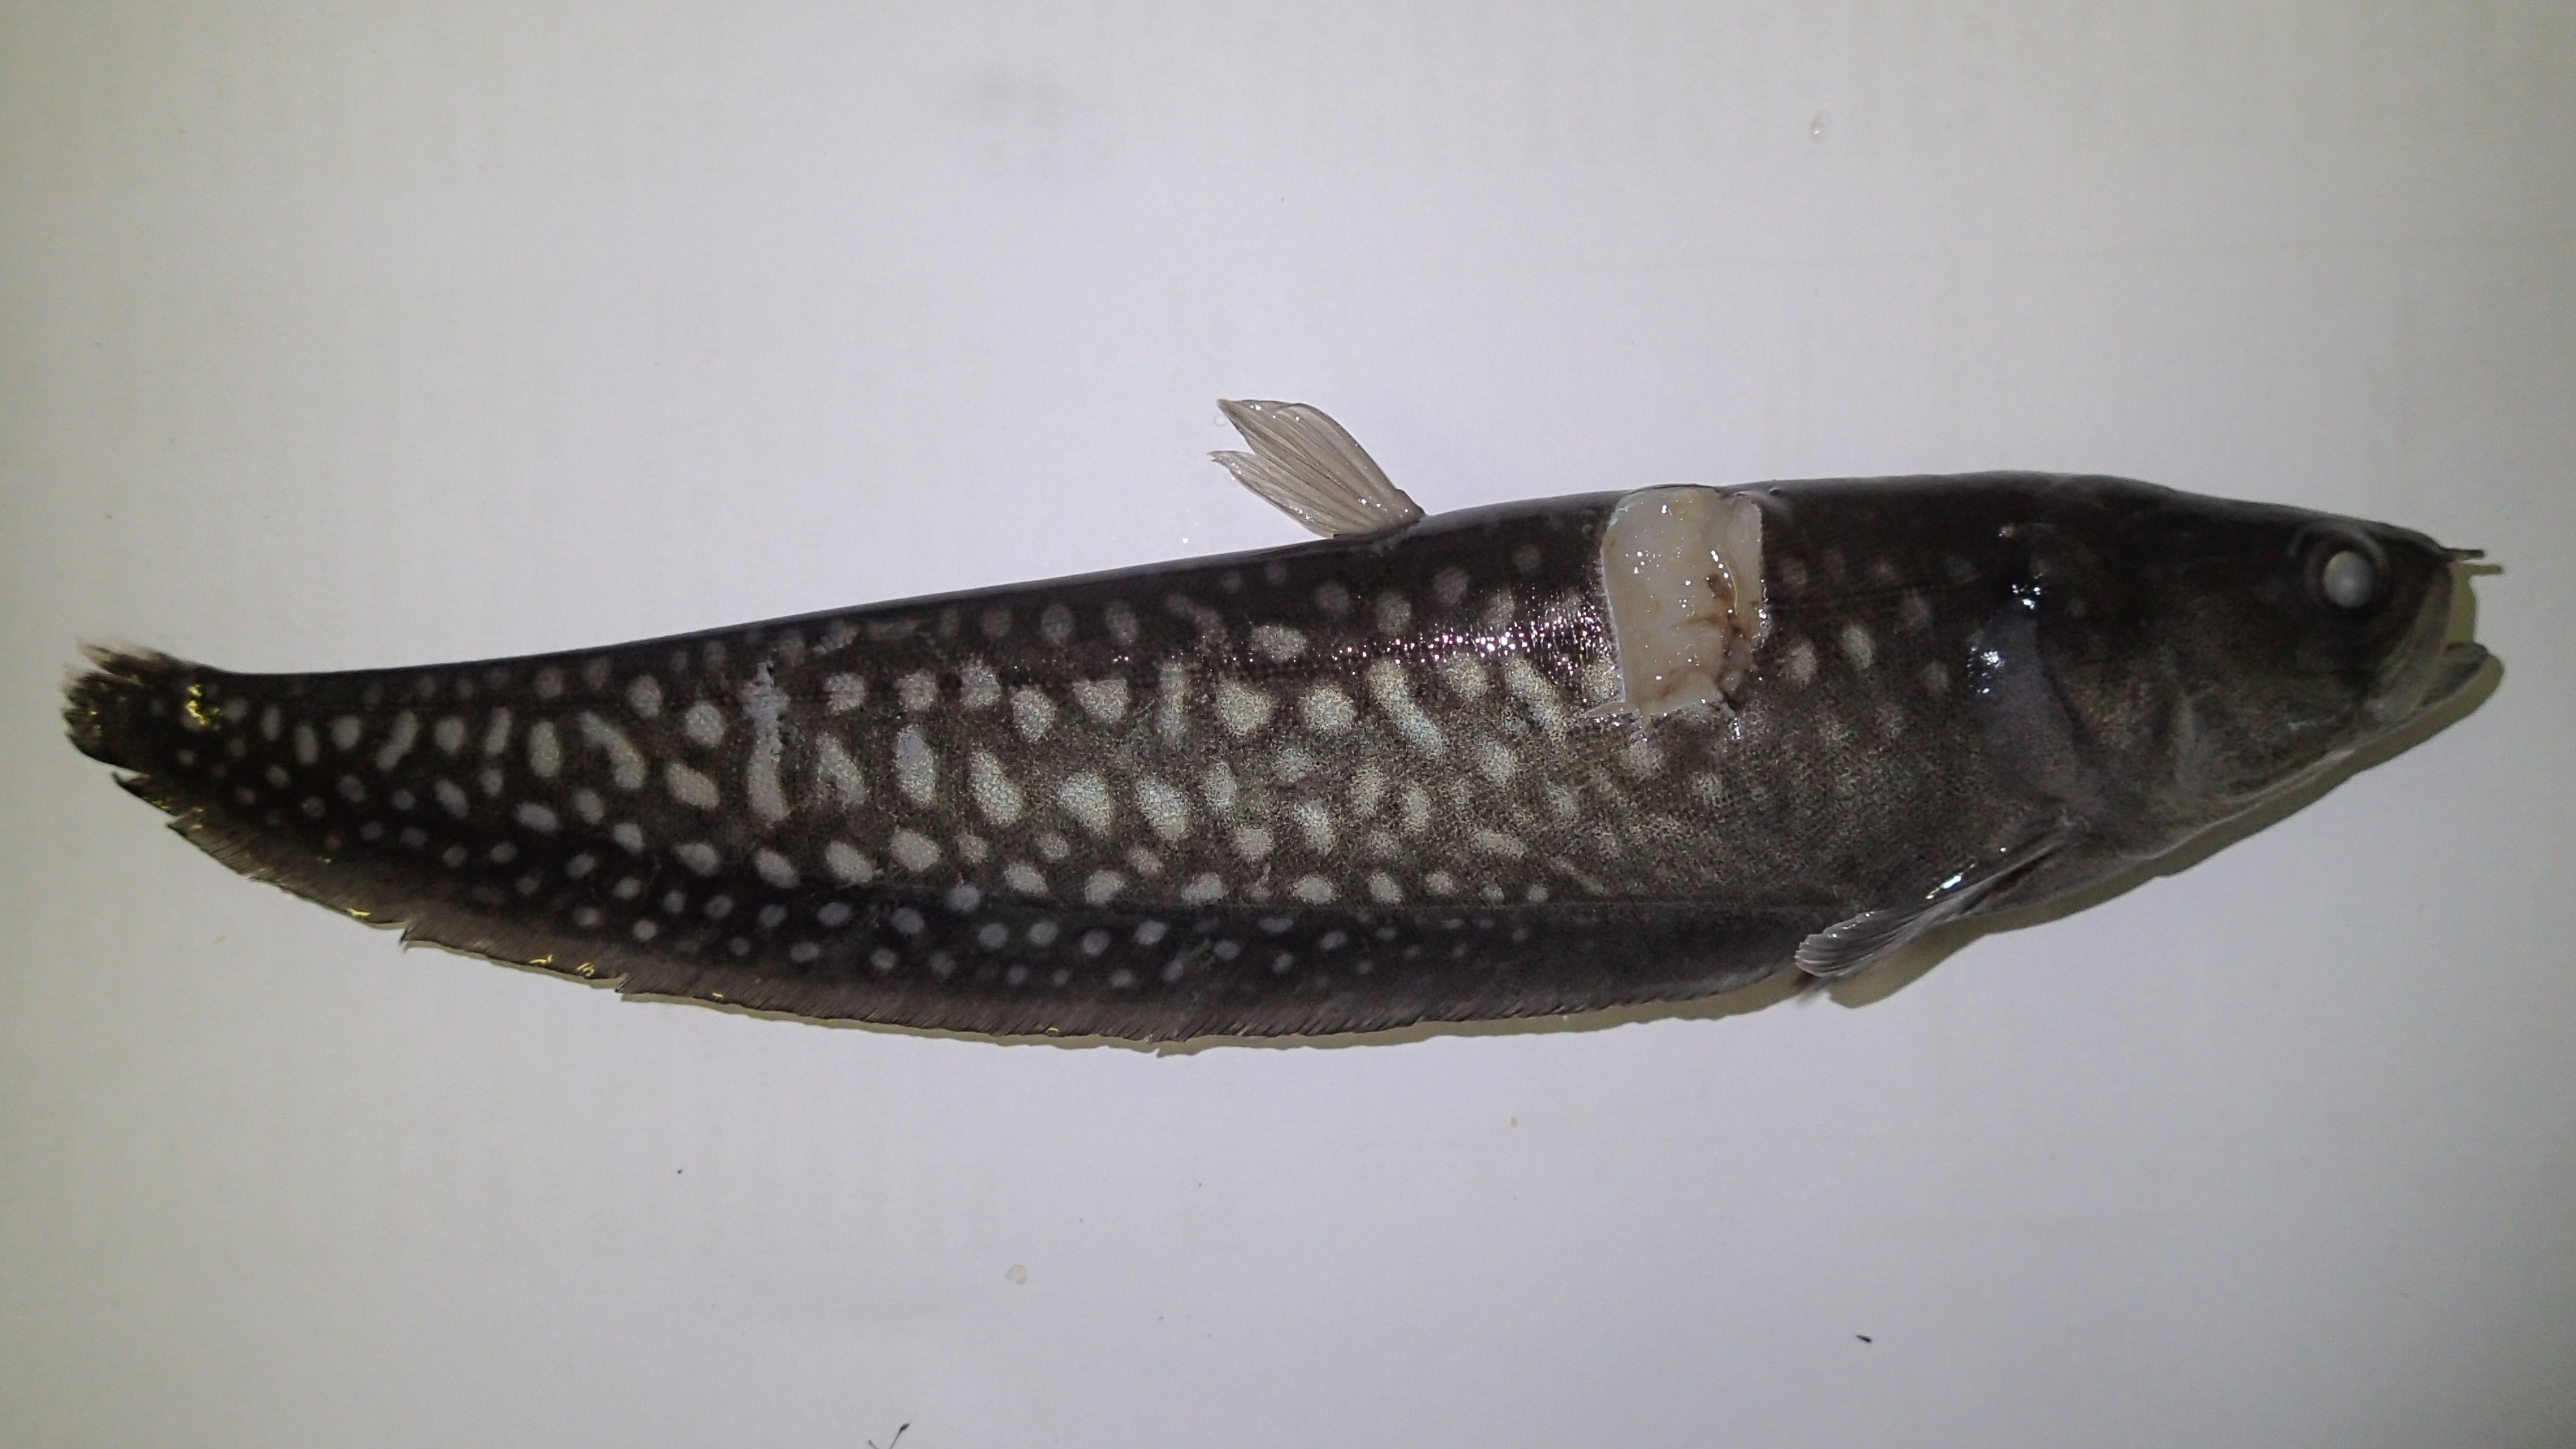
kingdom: Animalia
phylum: Chordata
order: Osteoglossiformes
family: Notopteridae
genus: Papyrocranus
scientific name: Papyrocranus afer
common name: Reticulate knifefish
